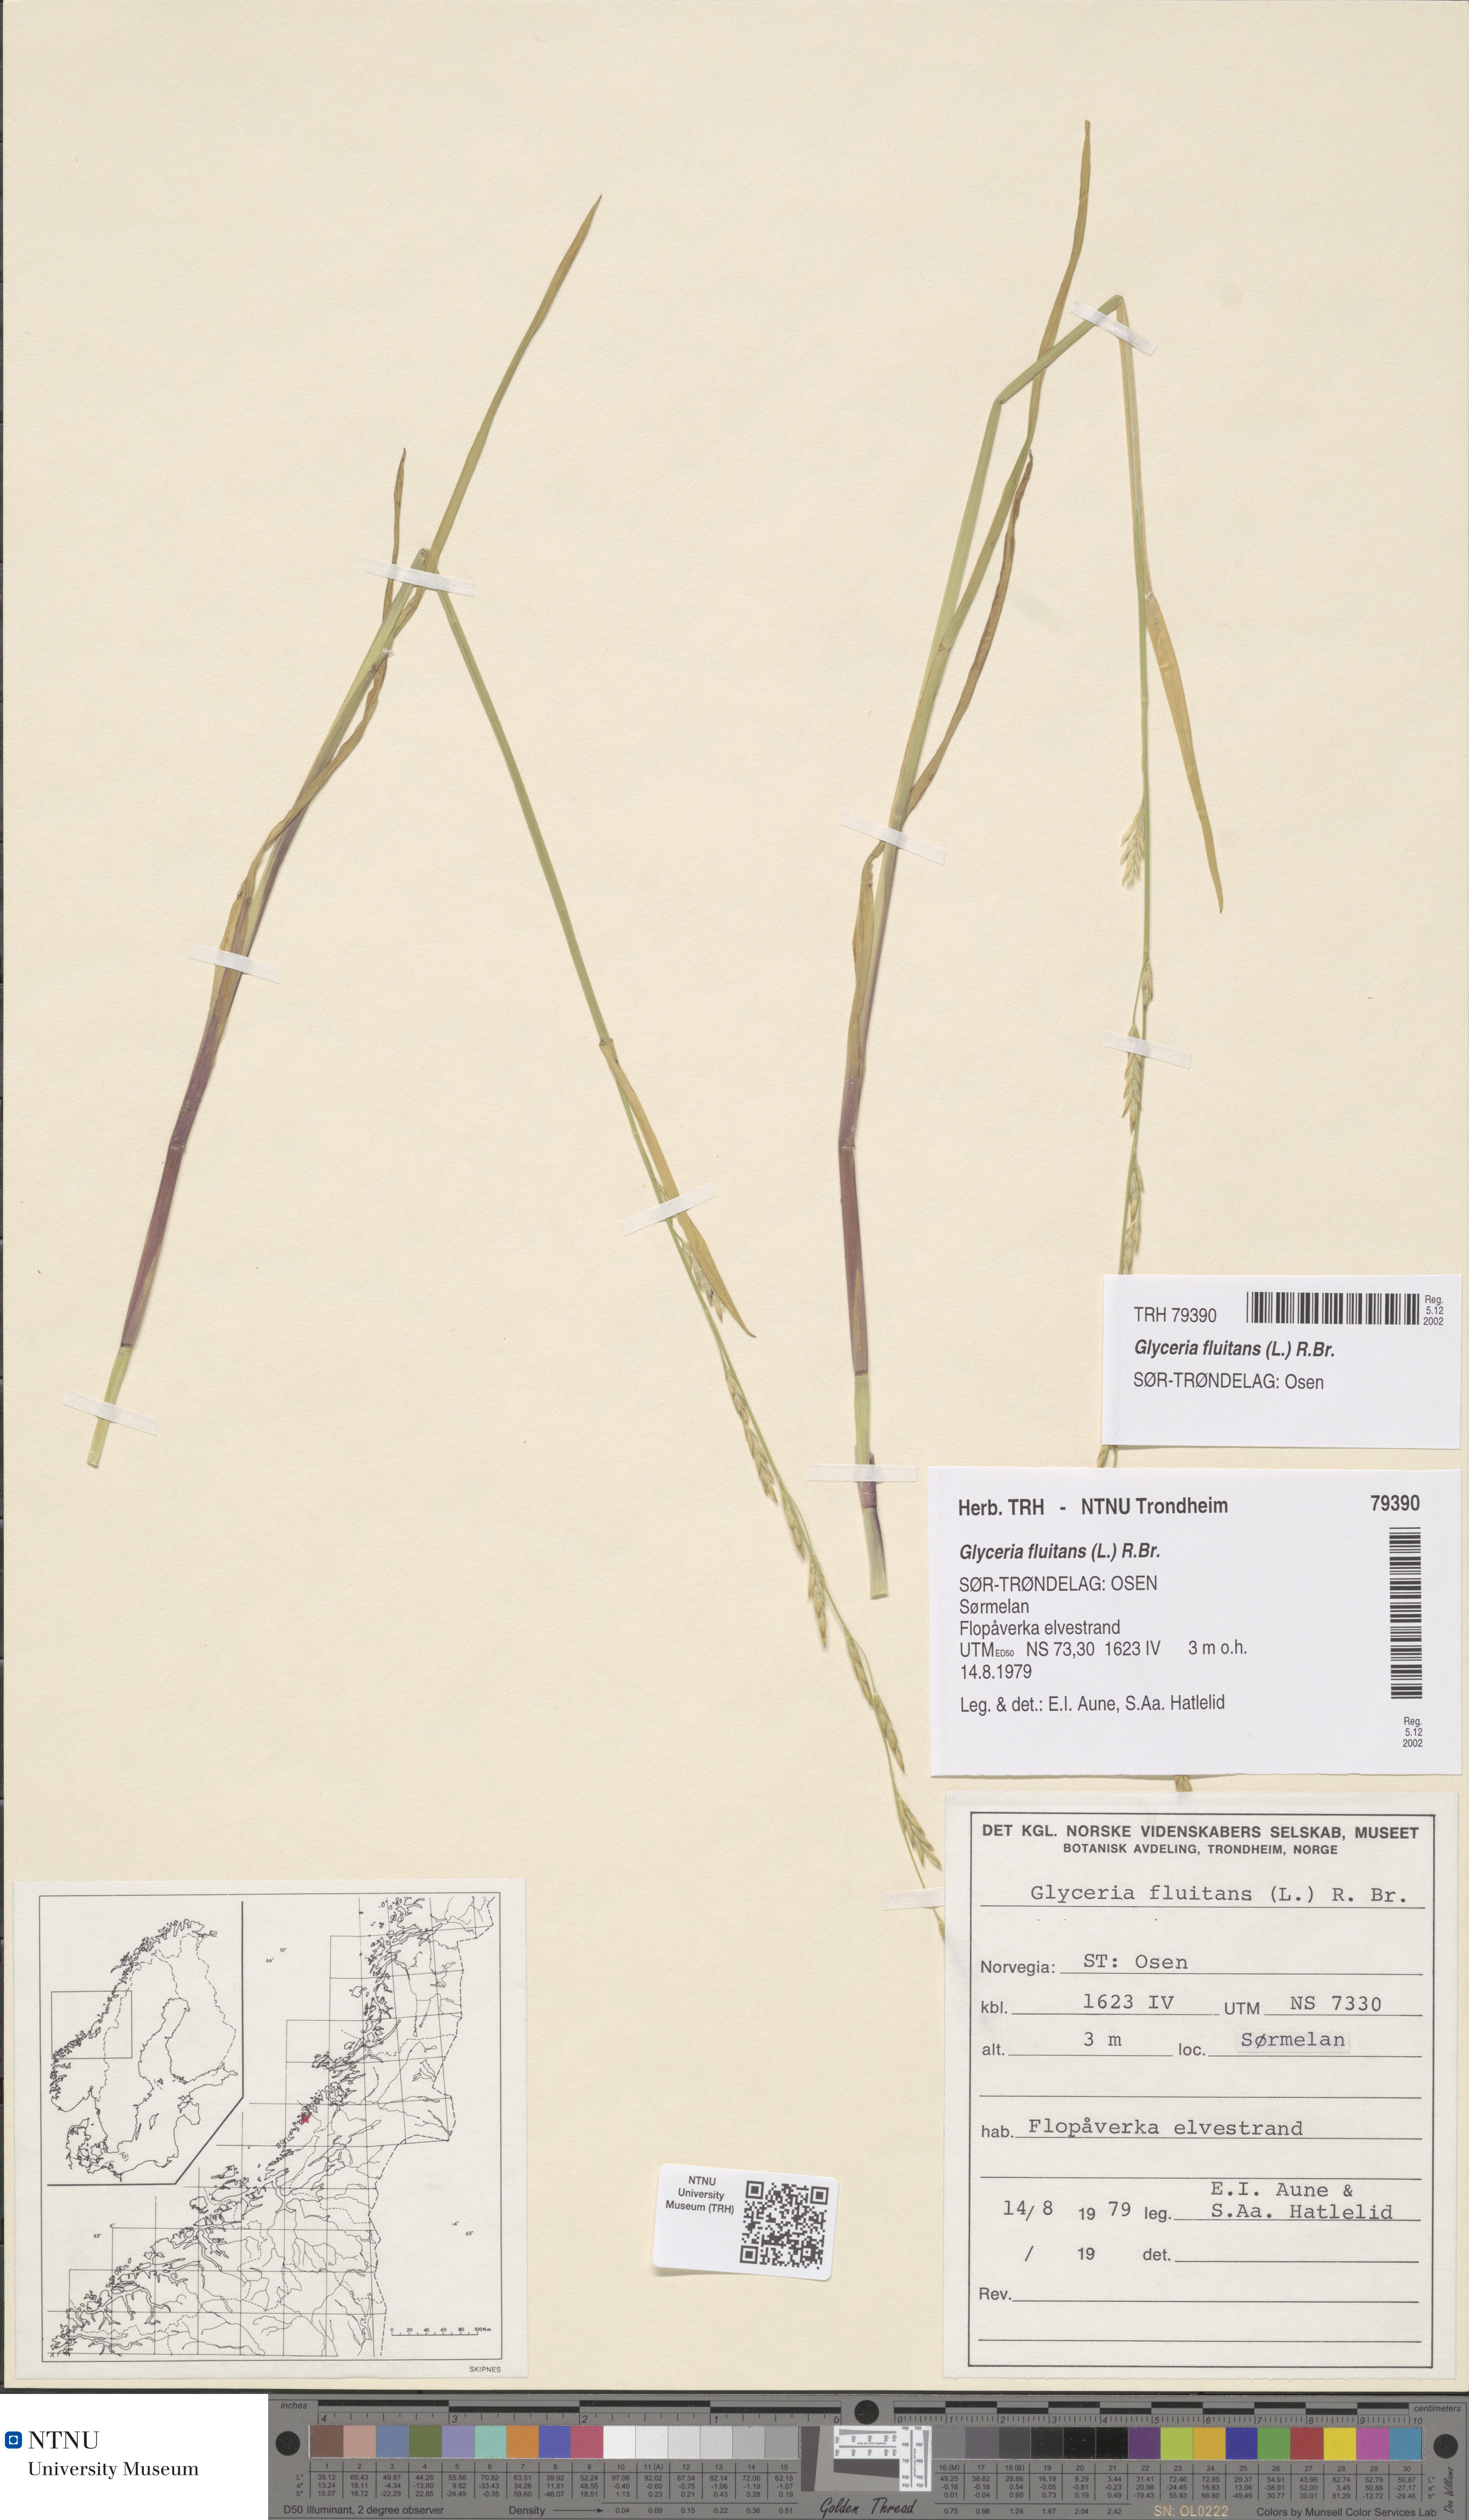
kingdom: Plantae
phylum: Tracheophyta
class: Liliopsida
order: Poales
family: Poaceae
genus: Glyceria
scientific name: Glyceria fluitans
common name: Floating sweet-grass
